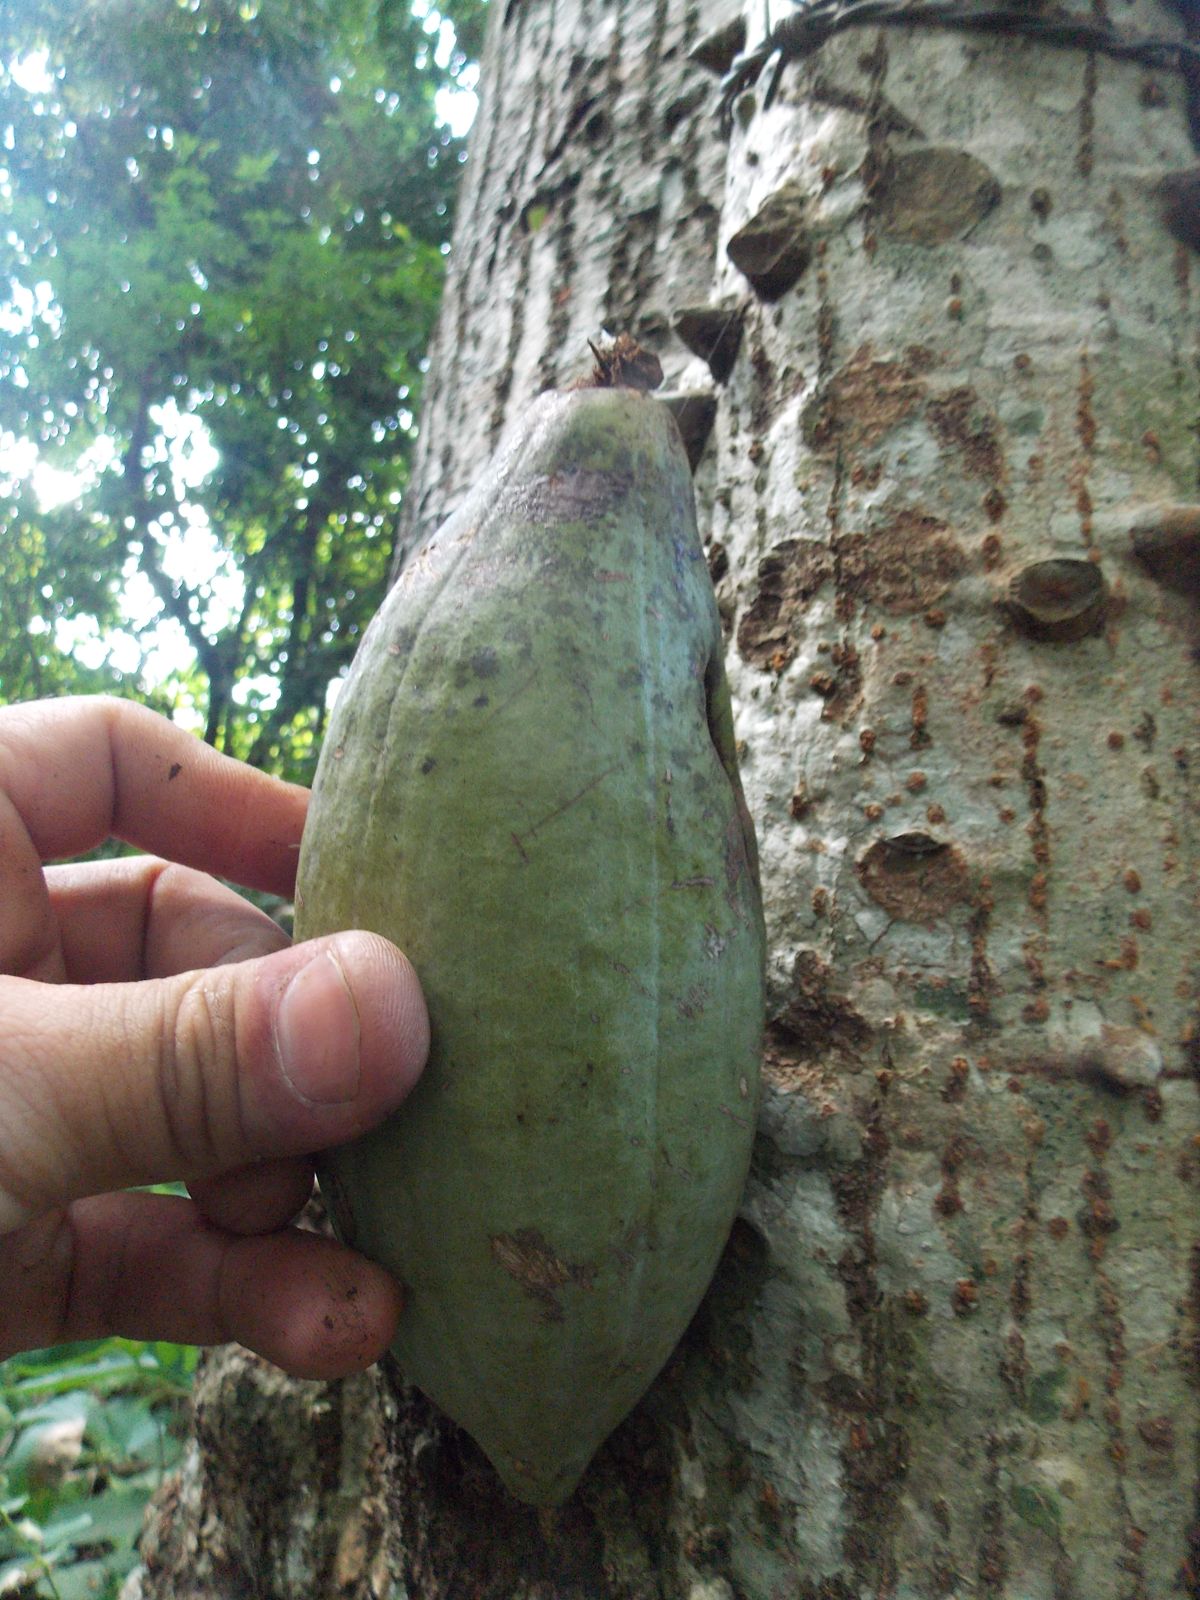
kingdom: Plantae
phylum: Tracheophyta
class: Magnoliopsida
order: Malvales
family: Malvaceae
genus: Ceiba
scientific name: Ceiba aesculifolia
